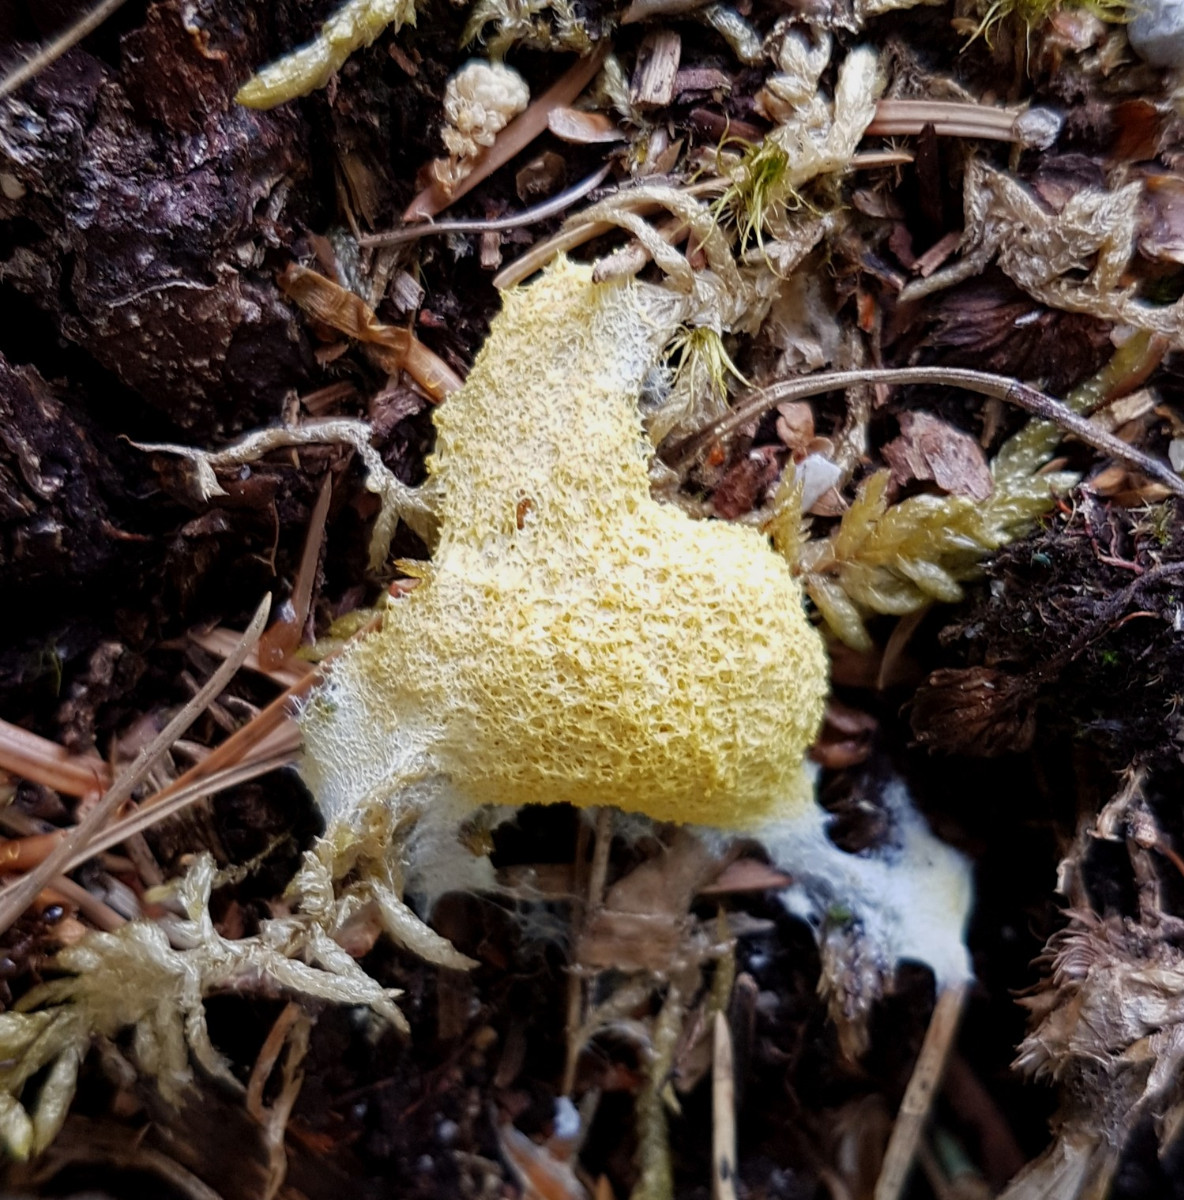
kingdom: Protozoa
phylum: Mycetozoa
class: Myxomycetes
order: Physarales
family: Physaraceae
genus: Fuligo
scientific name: Fuligo septica
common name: gul troldsmør
